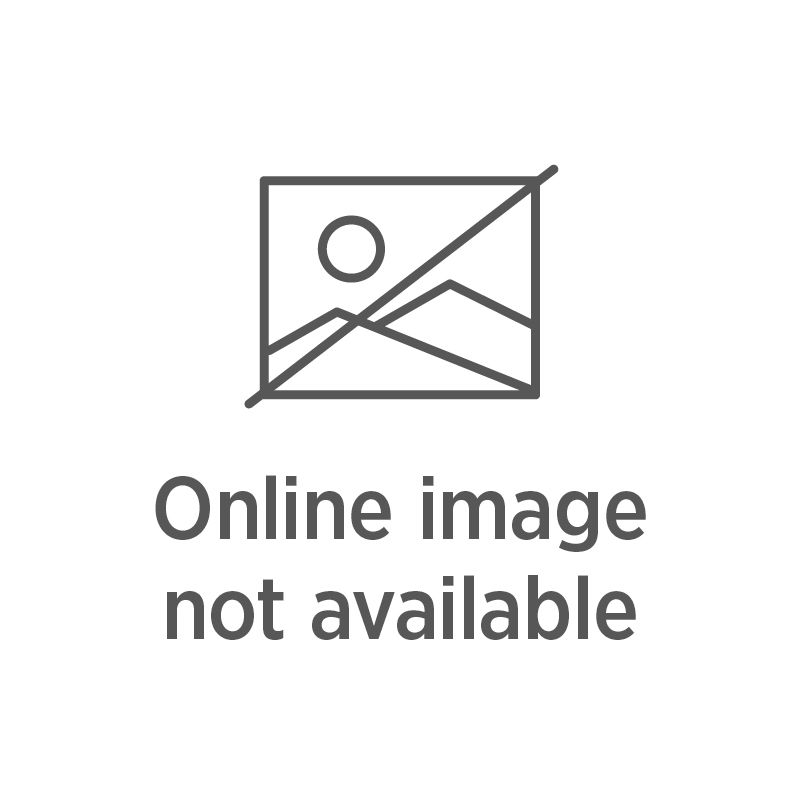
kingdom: Plantae
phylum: Tracheophyta
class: Liliopsida
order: Asparagales
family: Orchidaceae
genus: Thelymitra
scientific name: Thelymitra longifolia
